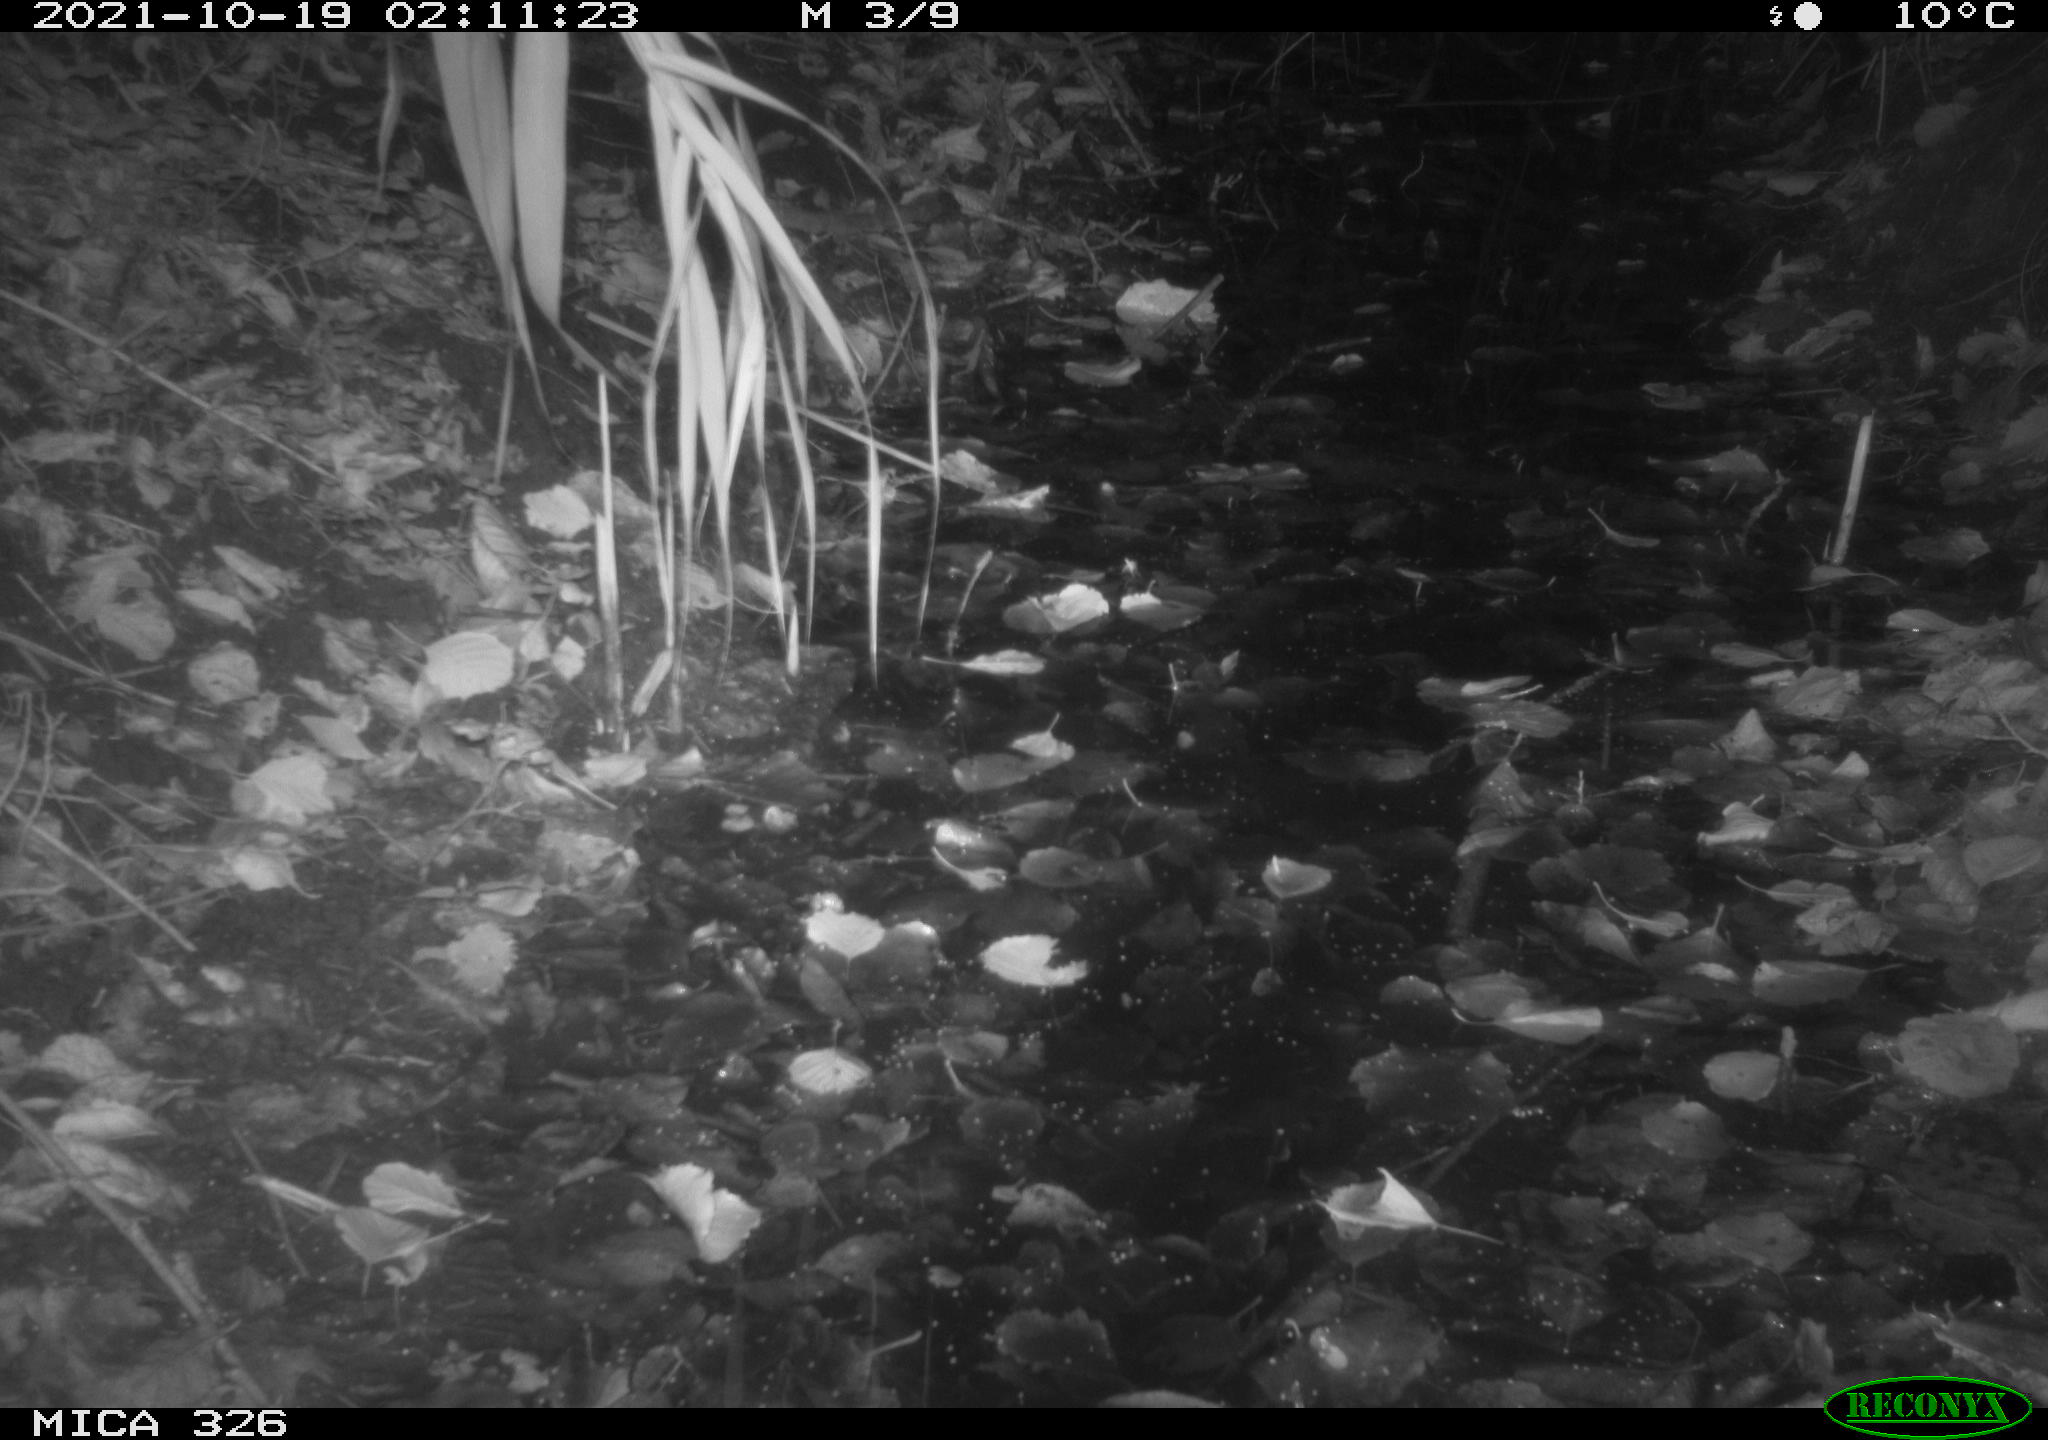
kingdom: Animalia
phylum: Chordata
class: Mammalia
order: Rodentia
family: Muridae
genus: Rattus
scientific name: Rattus norvegicus
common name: Brown rat
